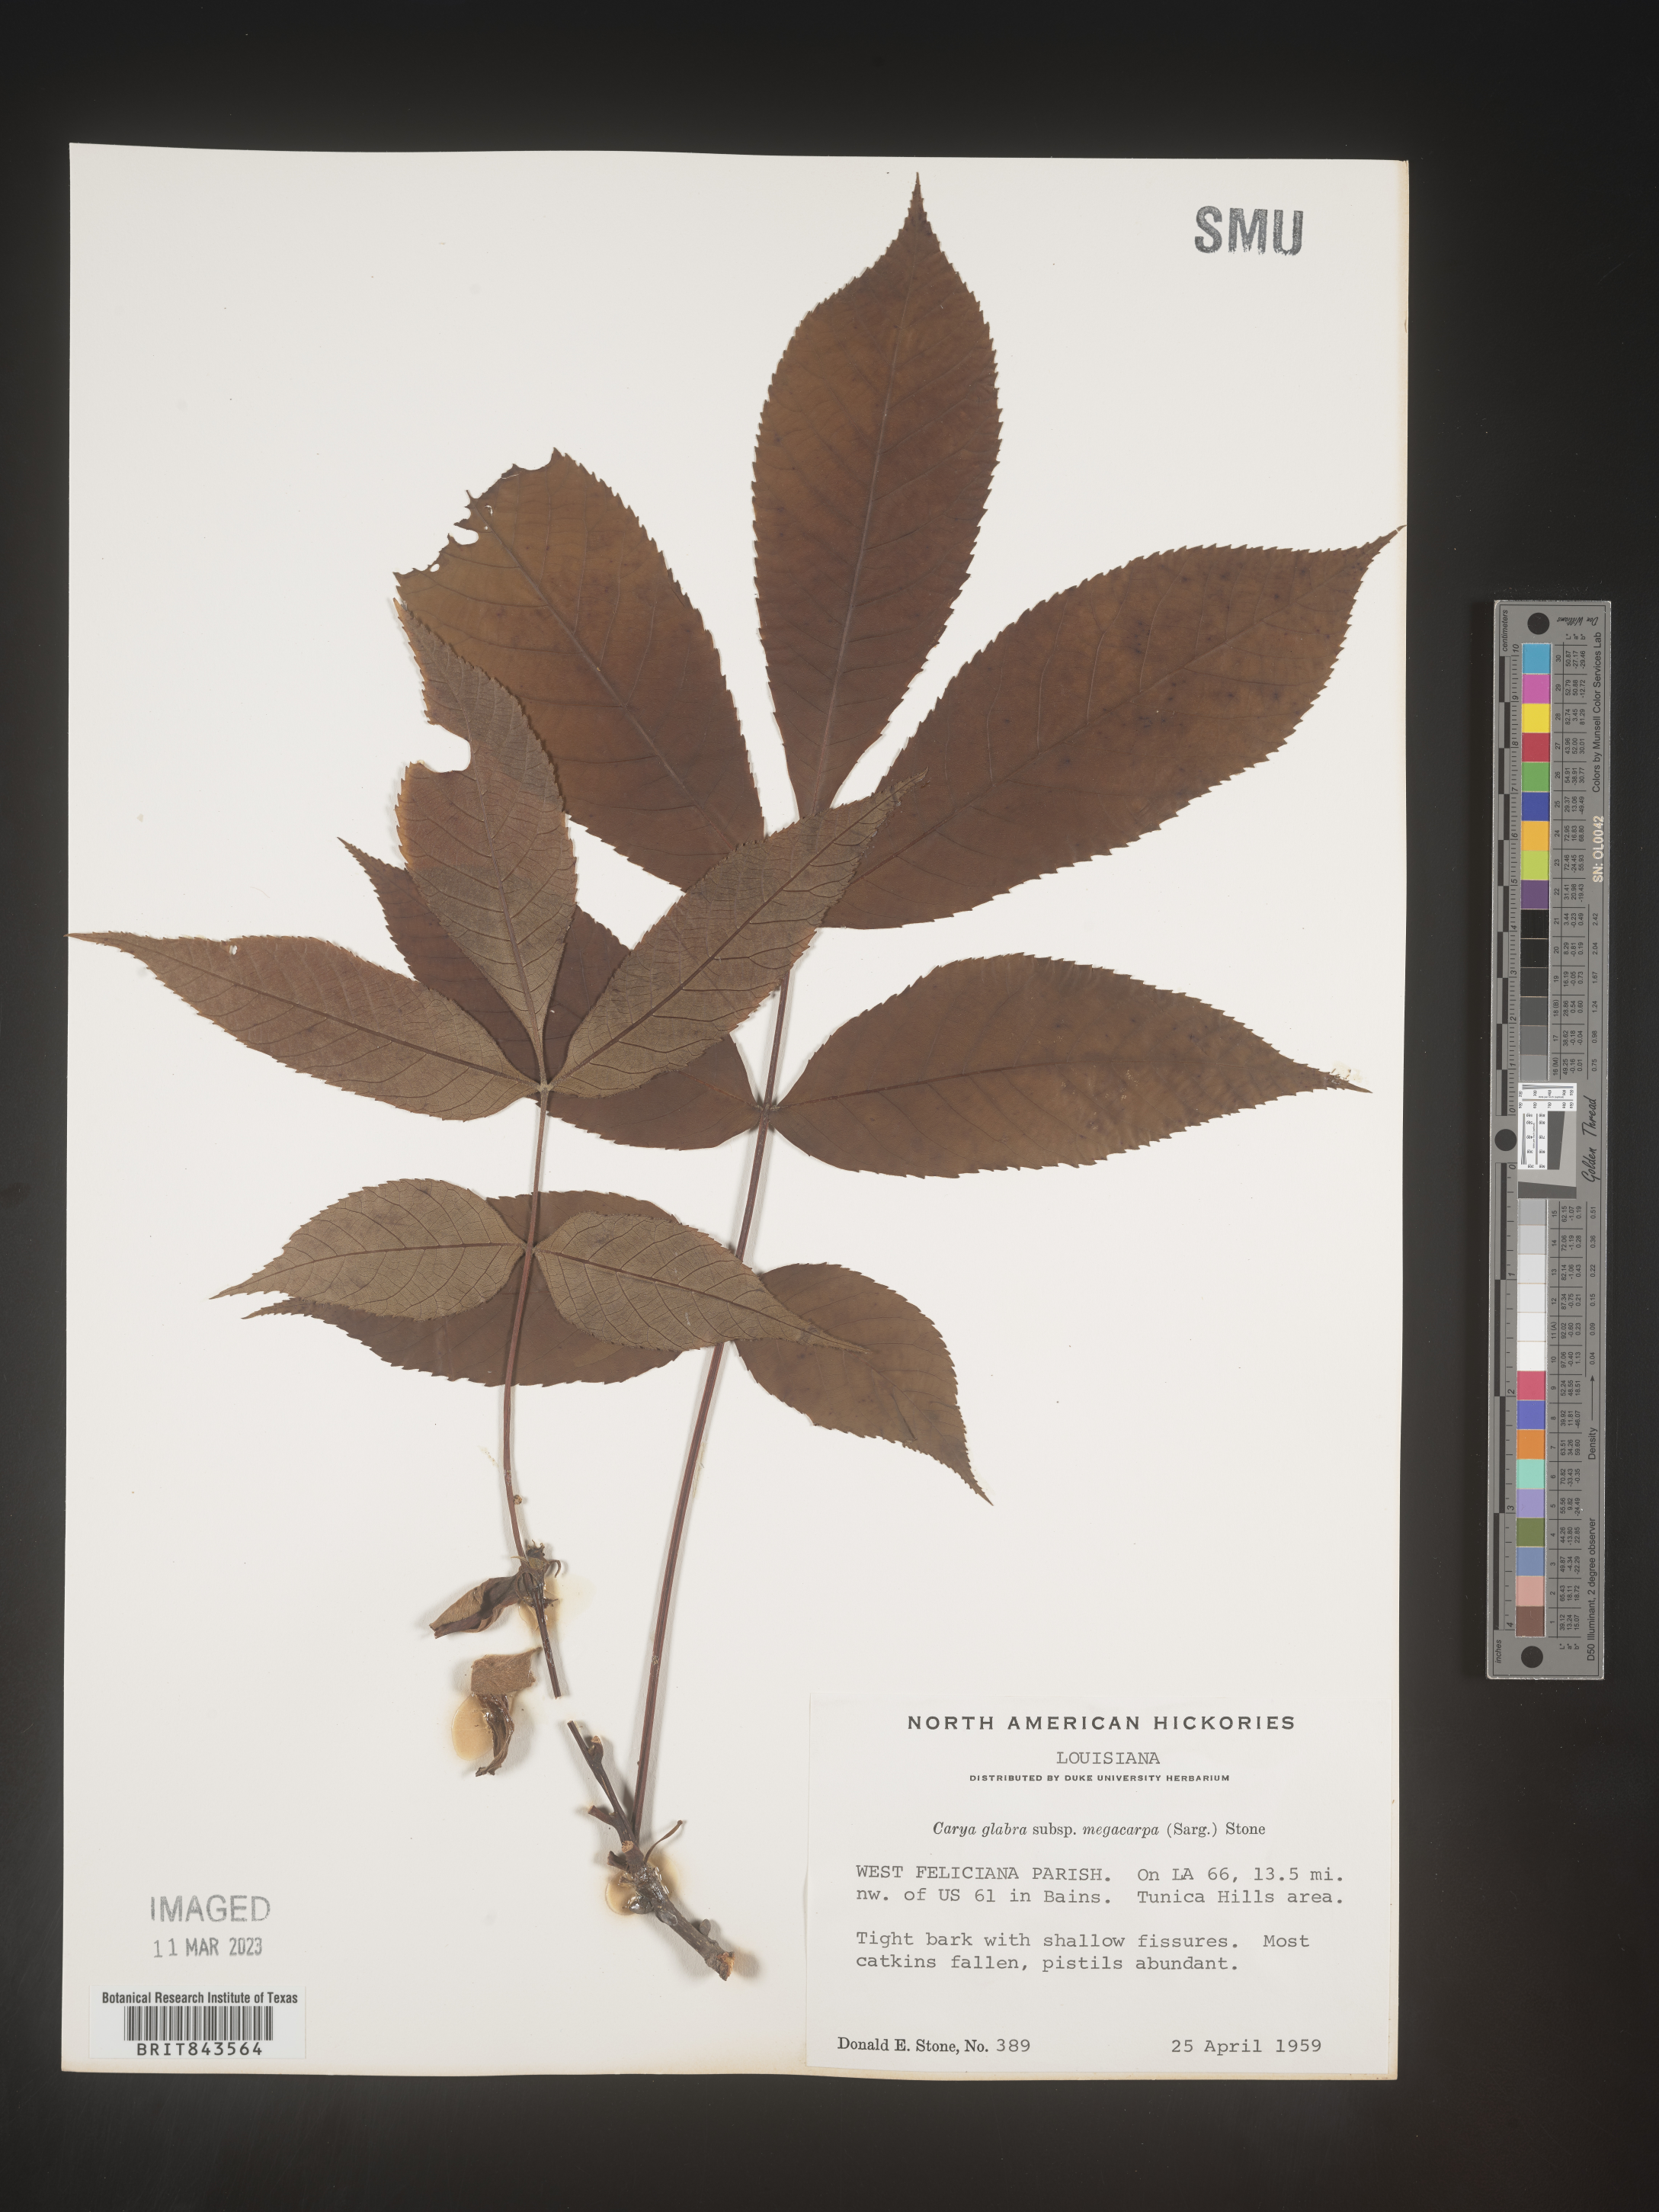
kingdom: Plantae
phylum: Tracheophyta
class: Magnoliopsida
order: Fagales
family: Juglandaceae
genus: Carya
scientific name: Carya glabra
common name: Pignut hickory
